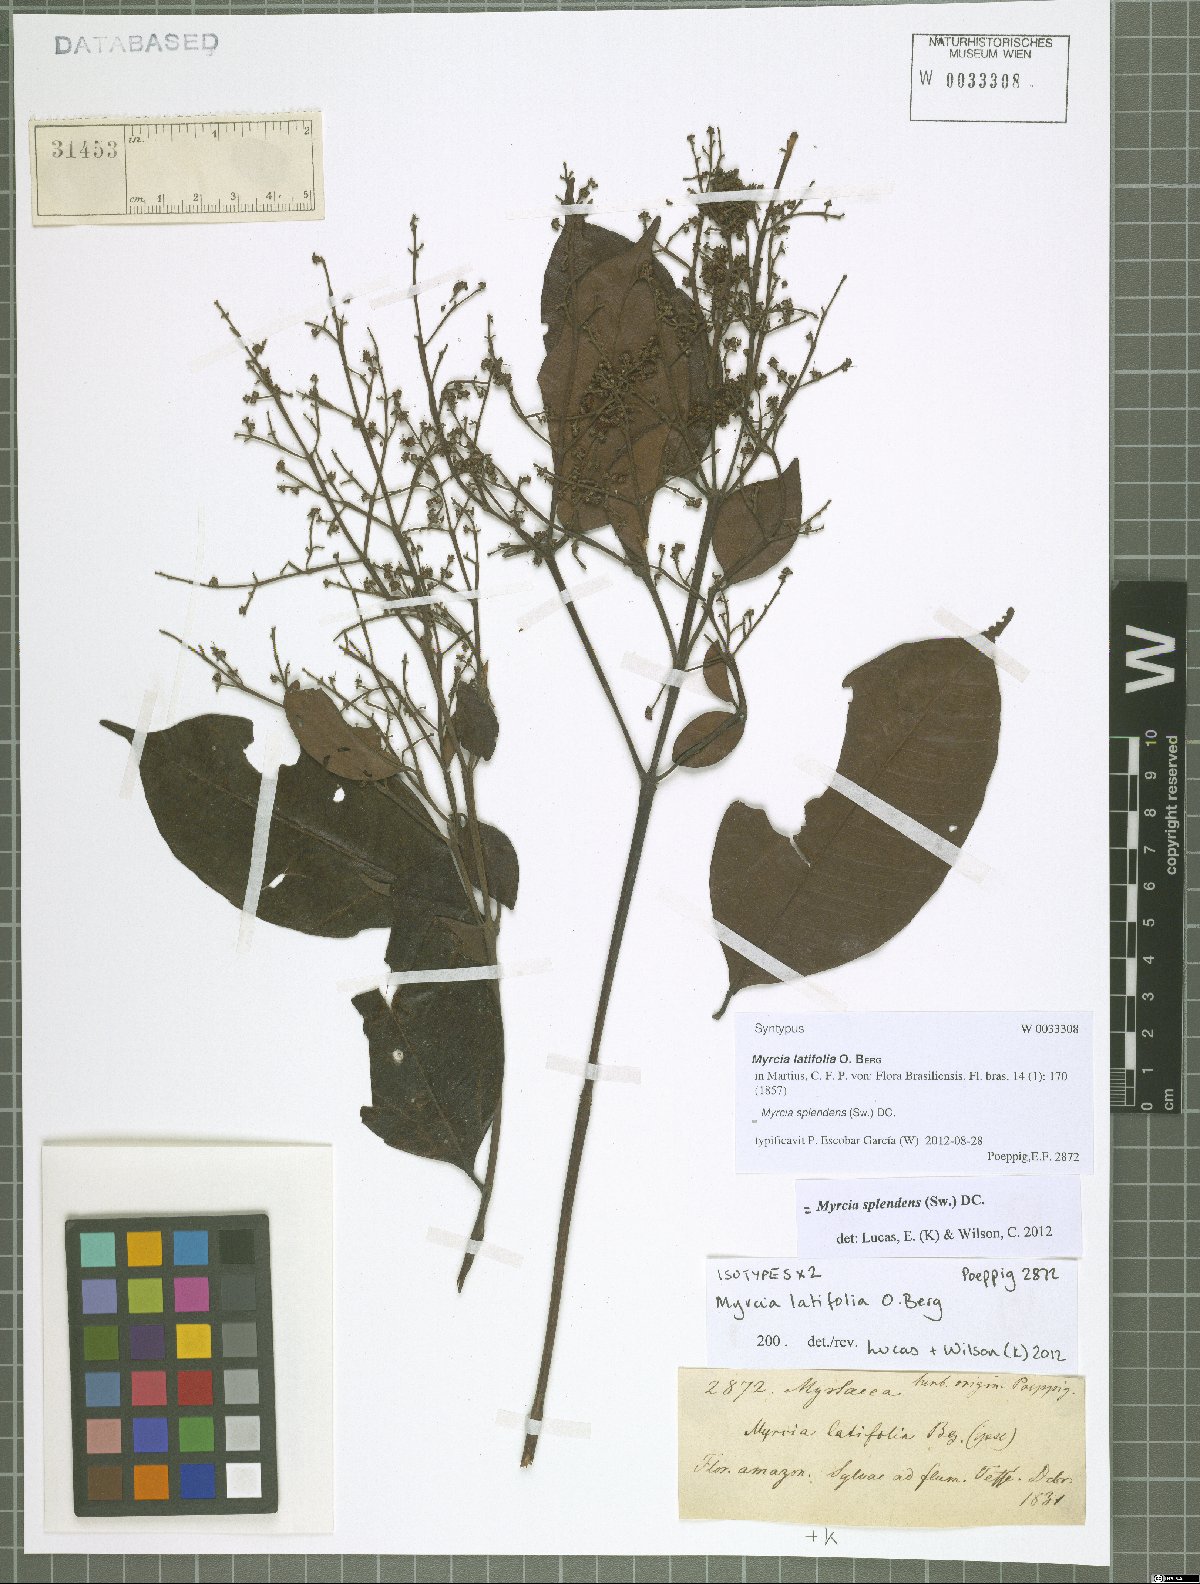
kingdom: Plantae
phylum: Tracheophyta
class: Magnoliopsida
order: Myrtales
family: Myrtaceae
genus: Myrcia
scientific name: Myrcia splendens
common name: Surinam cherry
